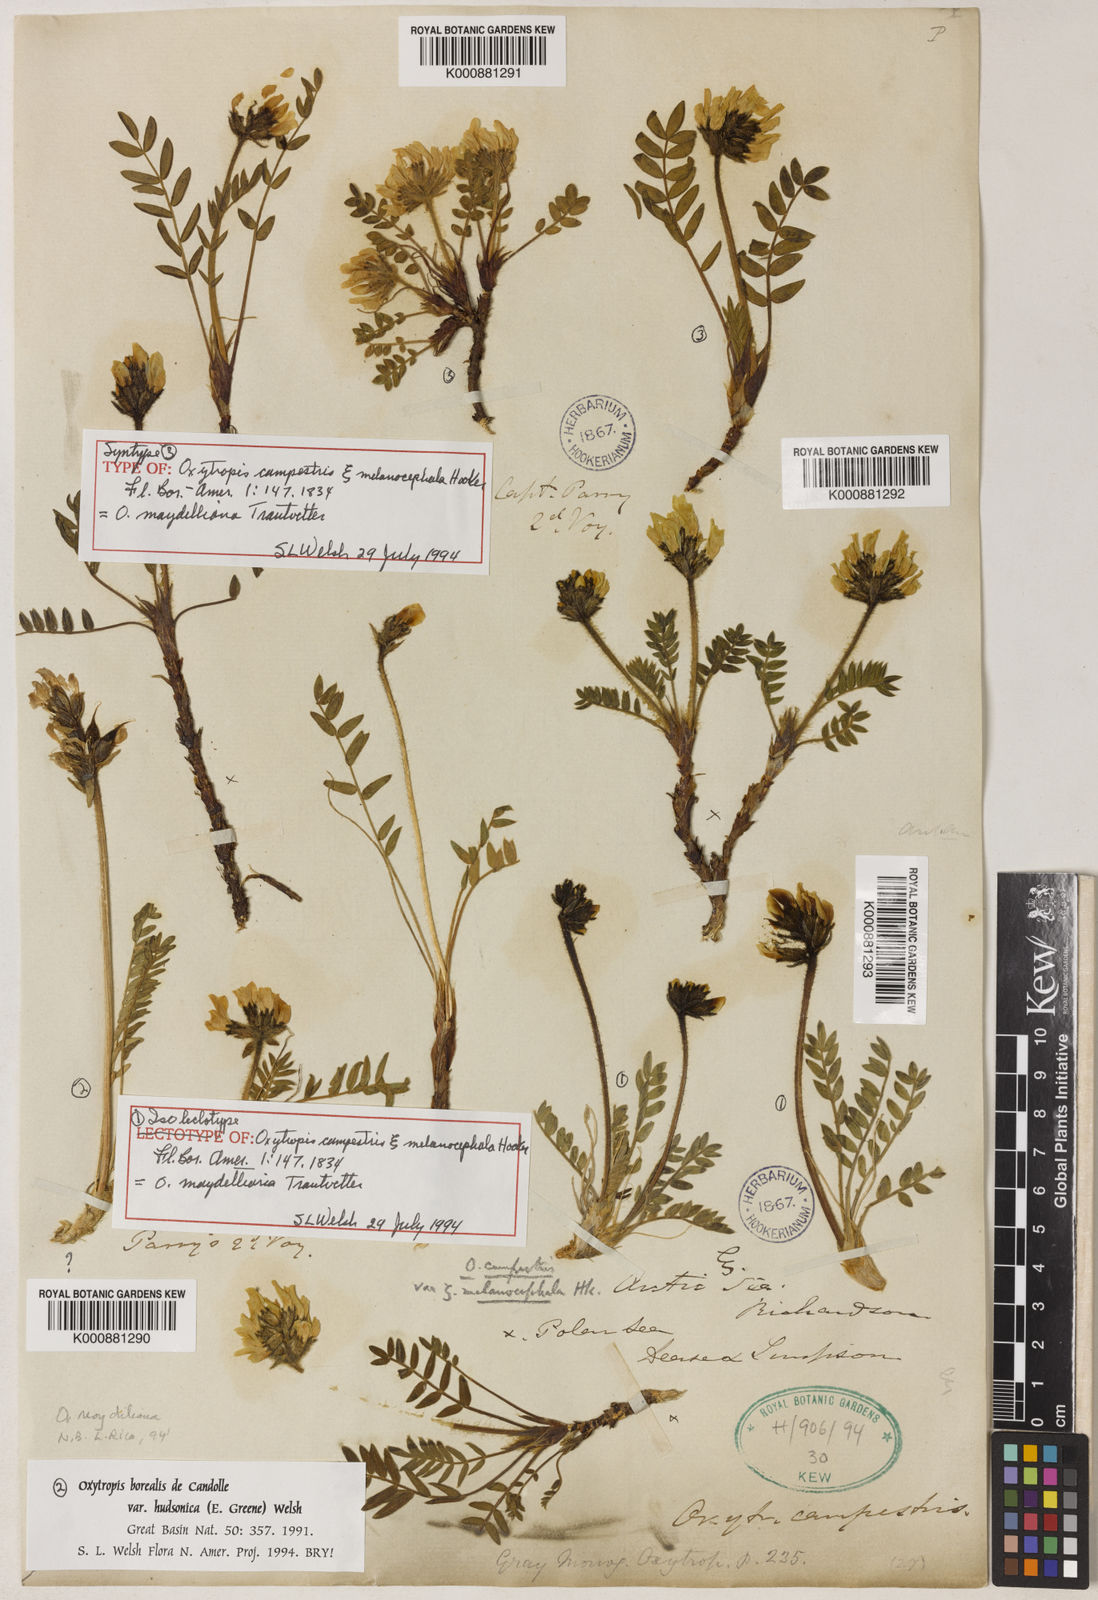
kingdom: Plantae
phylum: Tracheophyta
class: Magnoliopsida
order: Fabales
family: Fabaceae
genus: Oxytropis
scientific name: Oxytropis campestris
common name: Field locoweed
